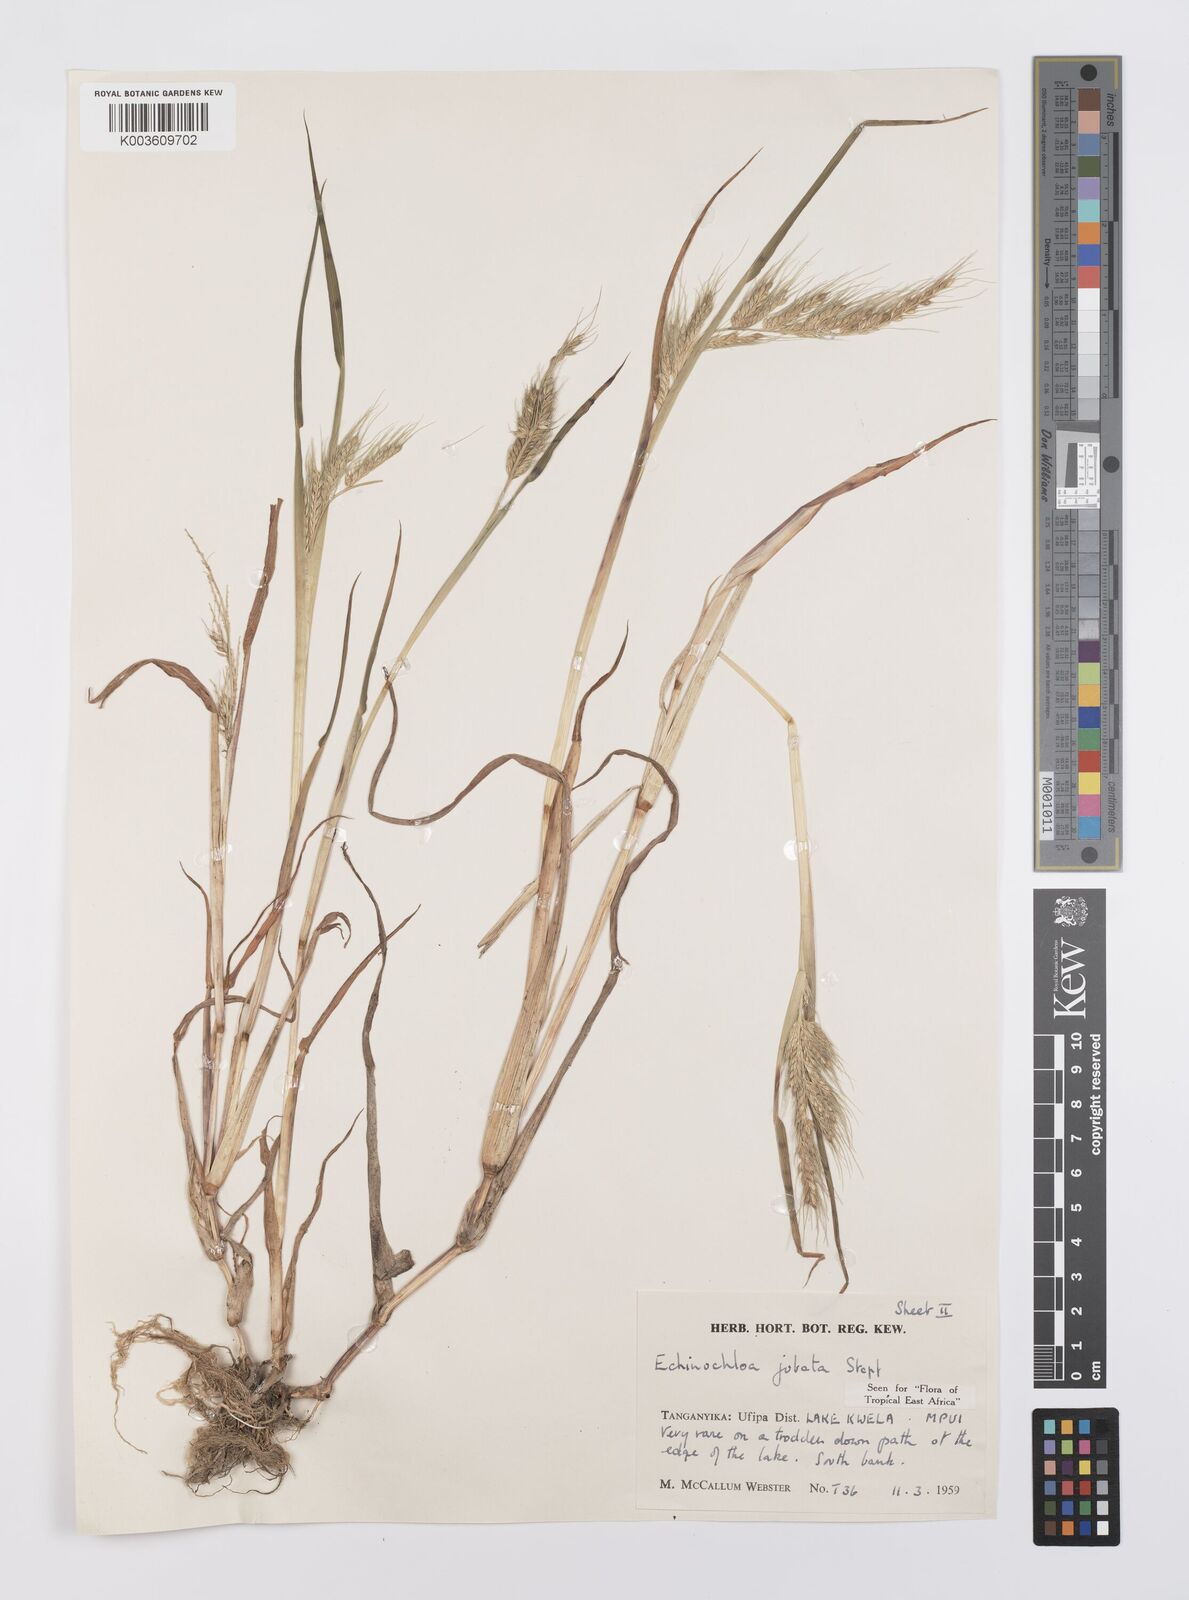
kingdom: Plantae
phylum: Tracheophyta
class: Liliopsida
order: Poales
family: Poaceae
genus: Echinochloa
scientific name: Echinochloa jubata
